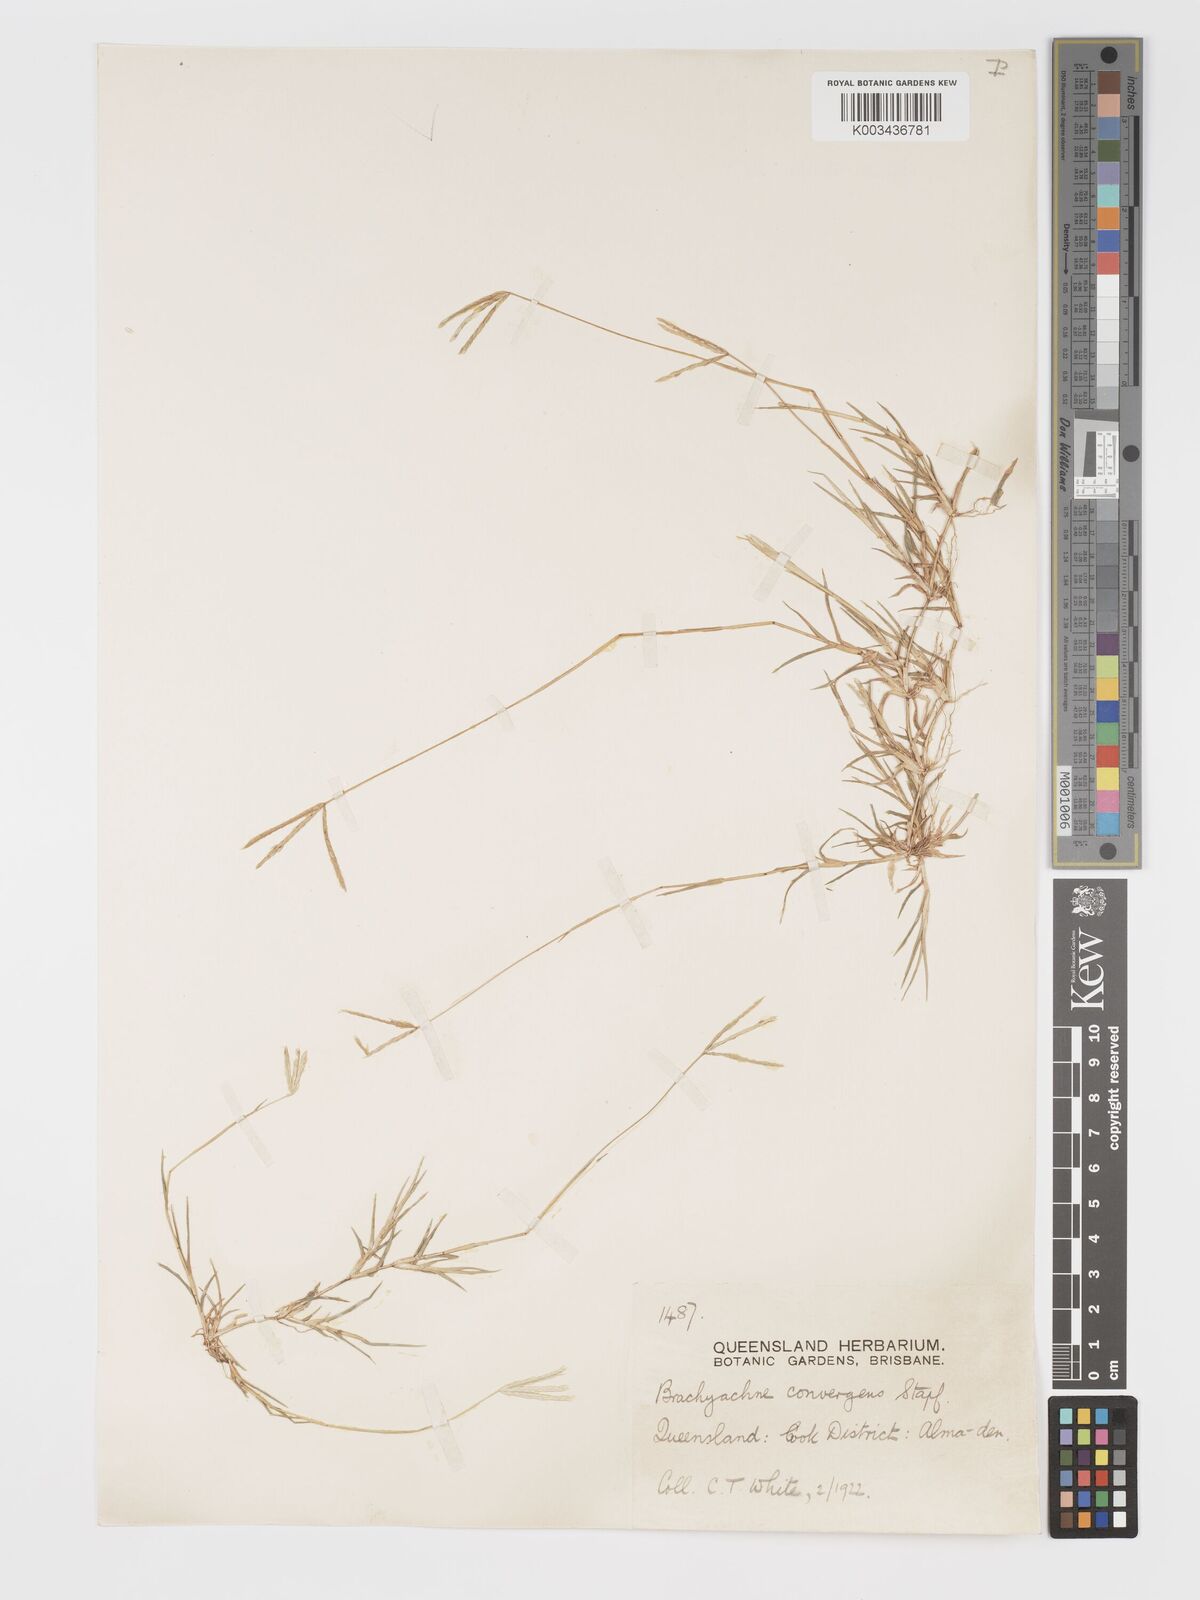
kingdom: Plantae
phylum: Tracheophyta
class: Liliopsida
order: Poales
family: Poaceae
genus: Cynodon
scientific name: Cynodon convergens
